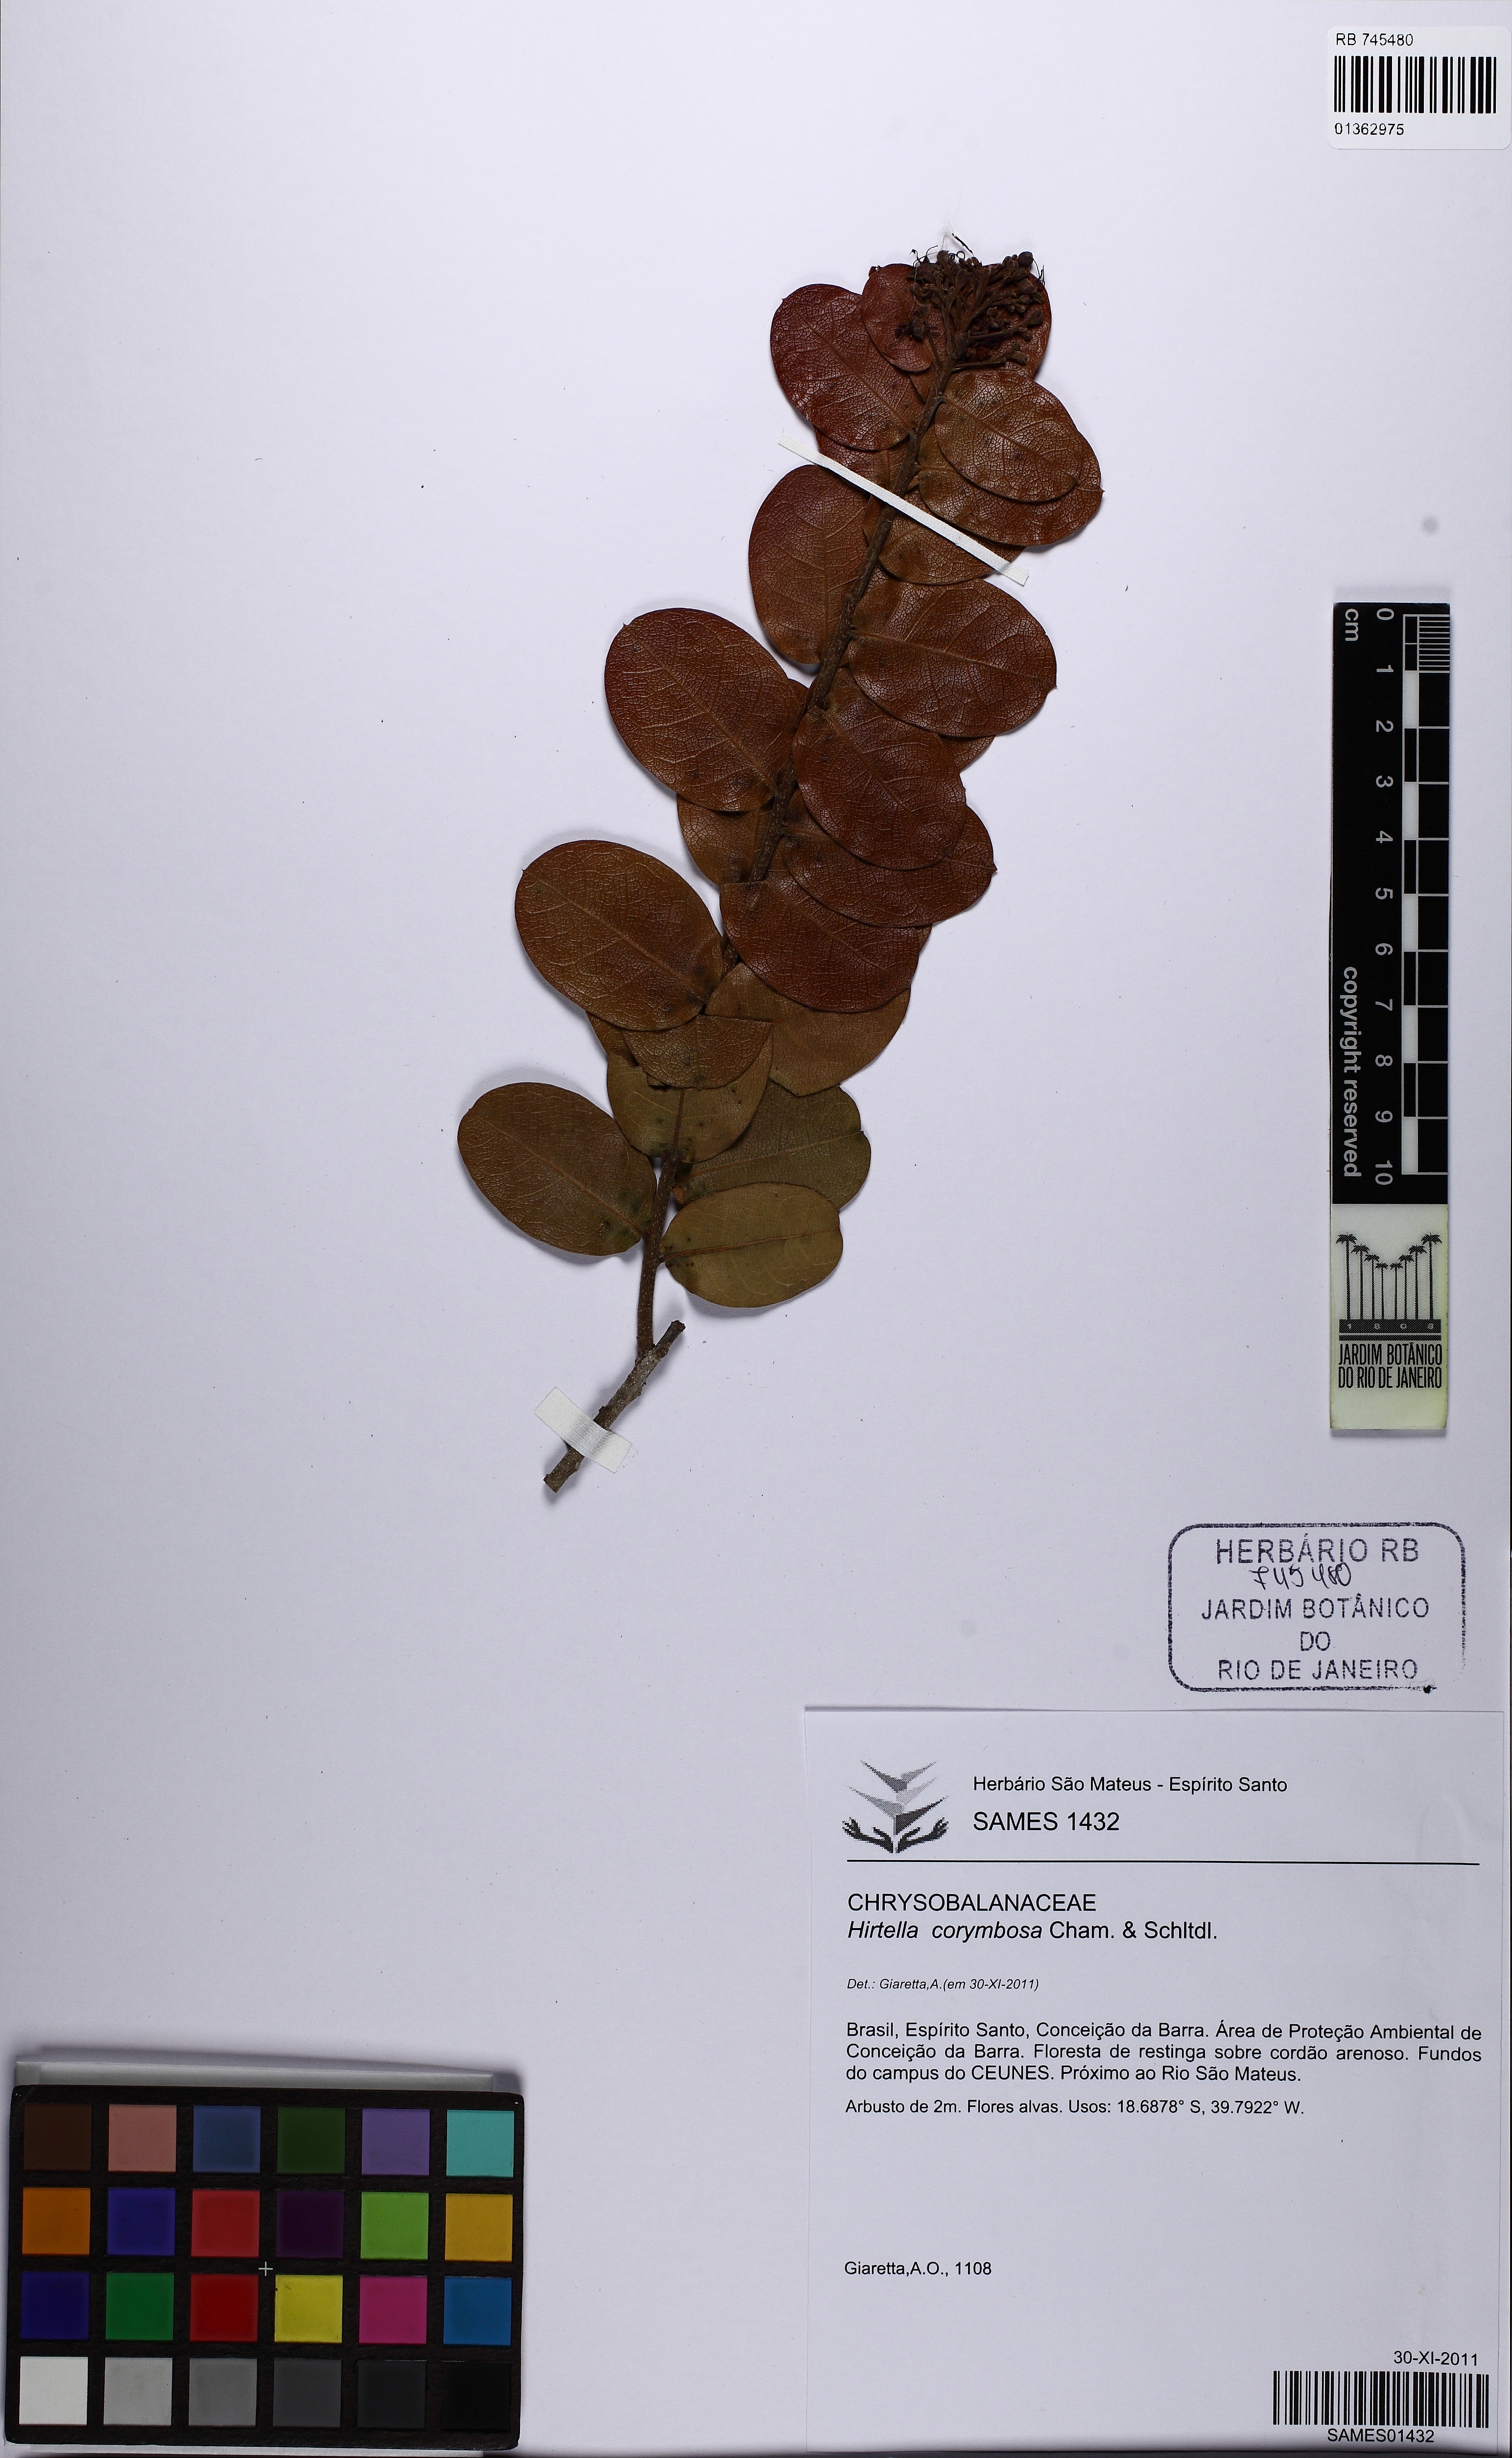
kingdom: Plantae
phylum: Tracheophyta
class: Magnoliopsida
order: Malpighiales
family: Chrysobalanaceae
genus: Hirtella
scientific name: Hirtella corymbosa
